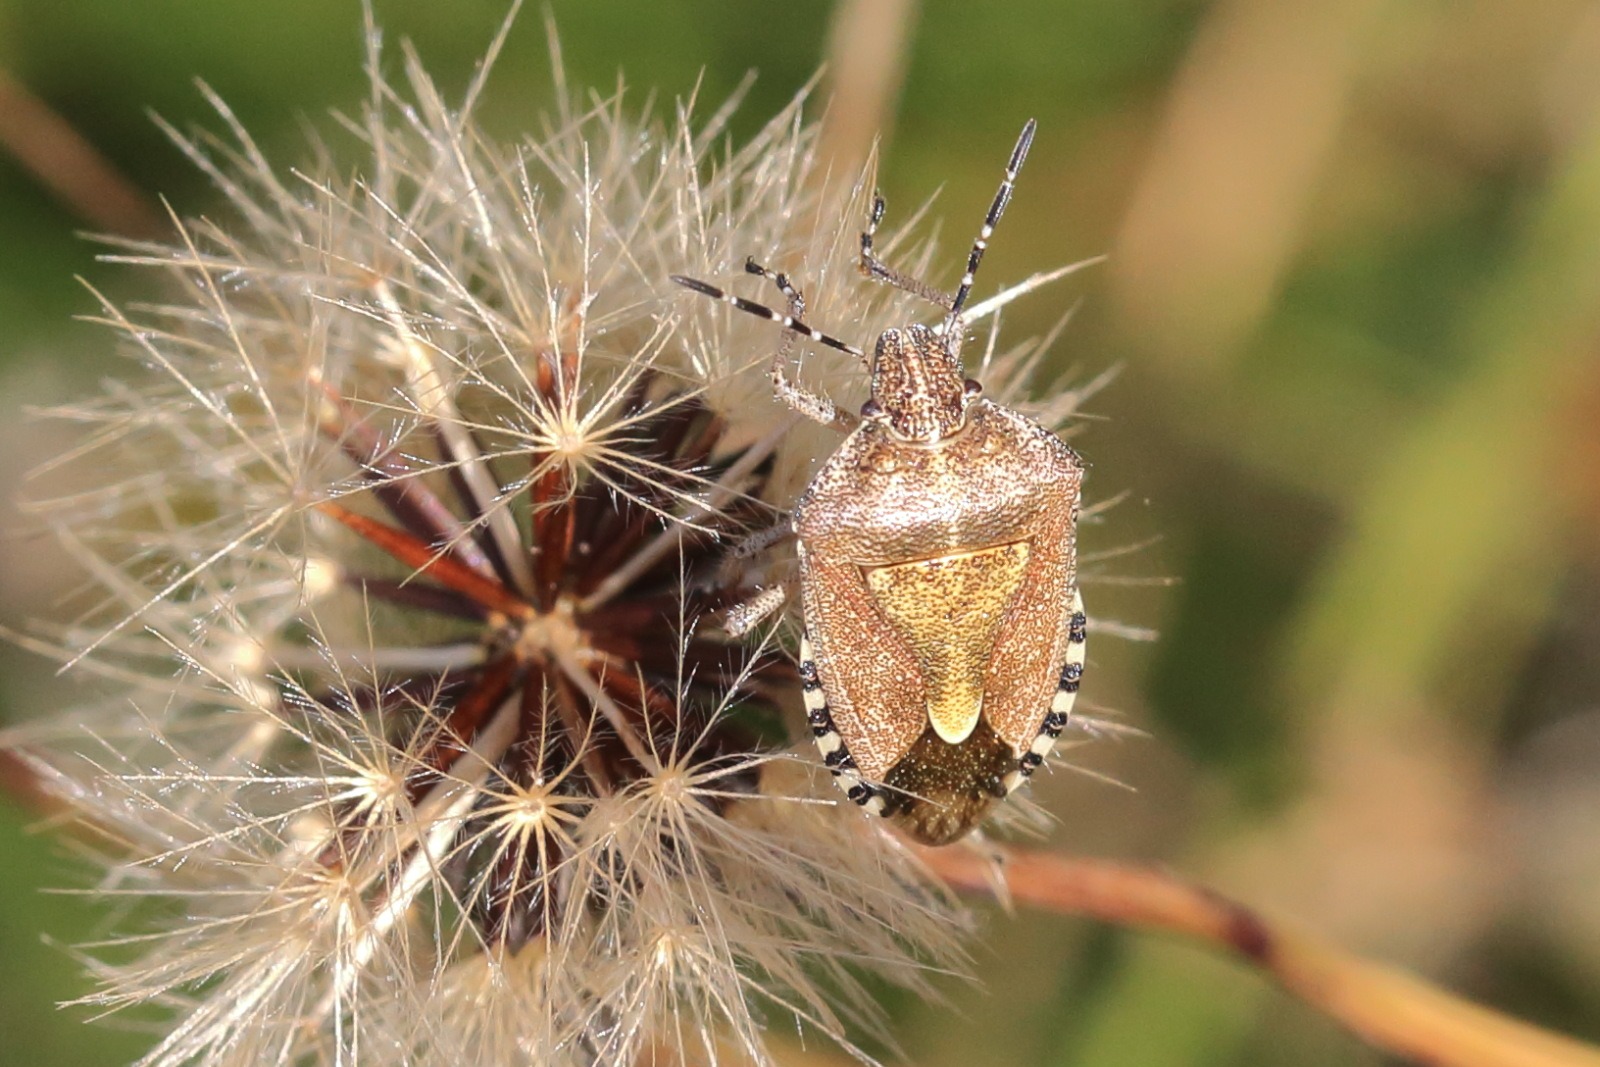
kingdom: Animalia
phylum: Arthropoda
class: Insecta
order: Hemiptera
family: Pentatomidae
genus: Dolycoris
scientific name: Dolycoris baccarum
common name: Almindelig bærtæge
